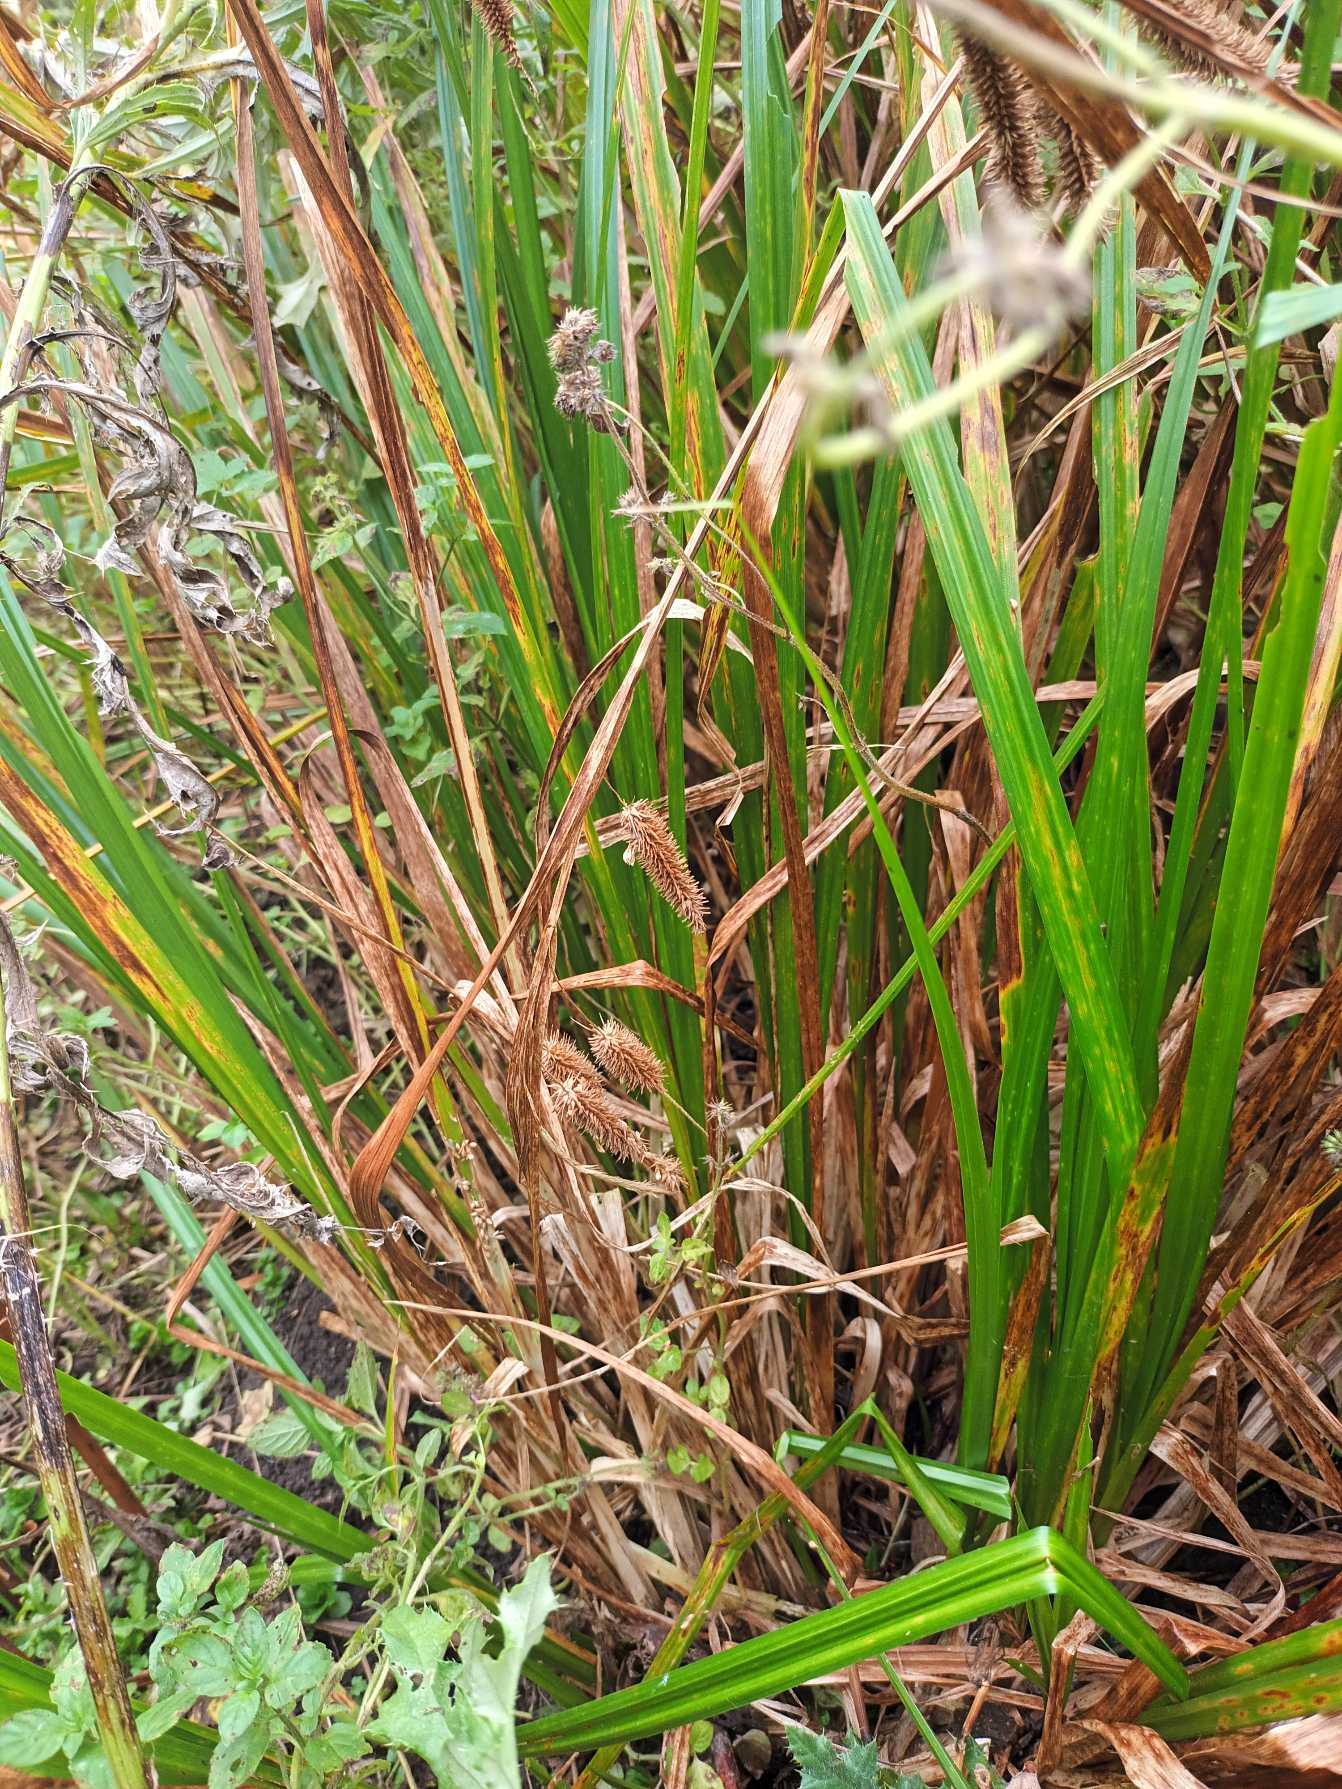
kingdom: Plantae
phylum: Tracheophyta
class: Liliopsida
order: Poales
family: Cyperaceae
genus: Carex
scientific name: Carex pseudocyperus
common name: Knippe-star
